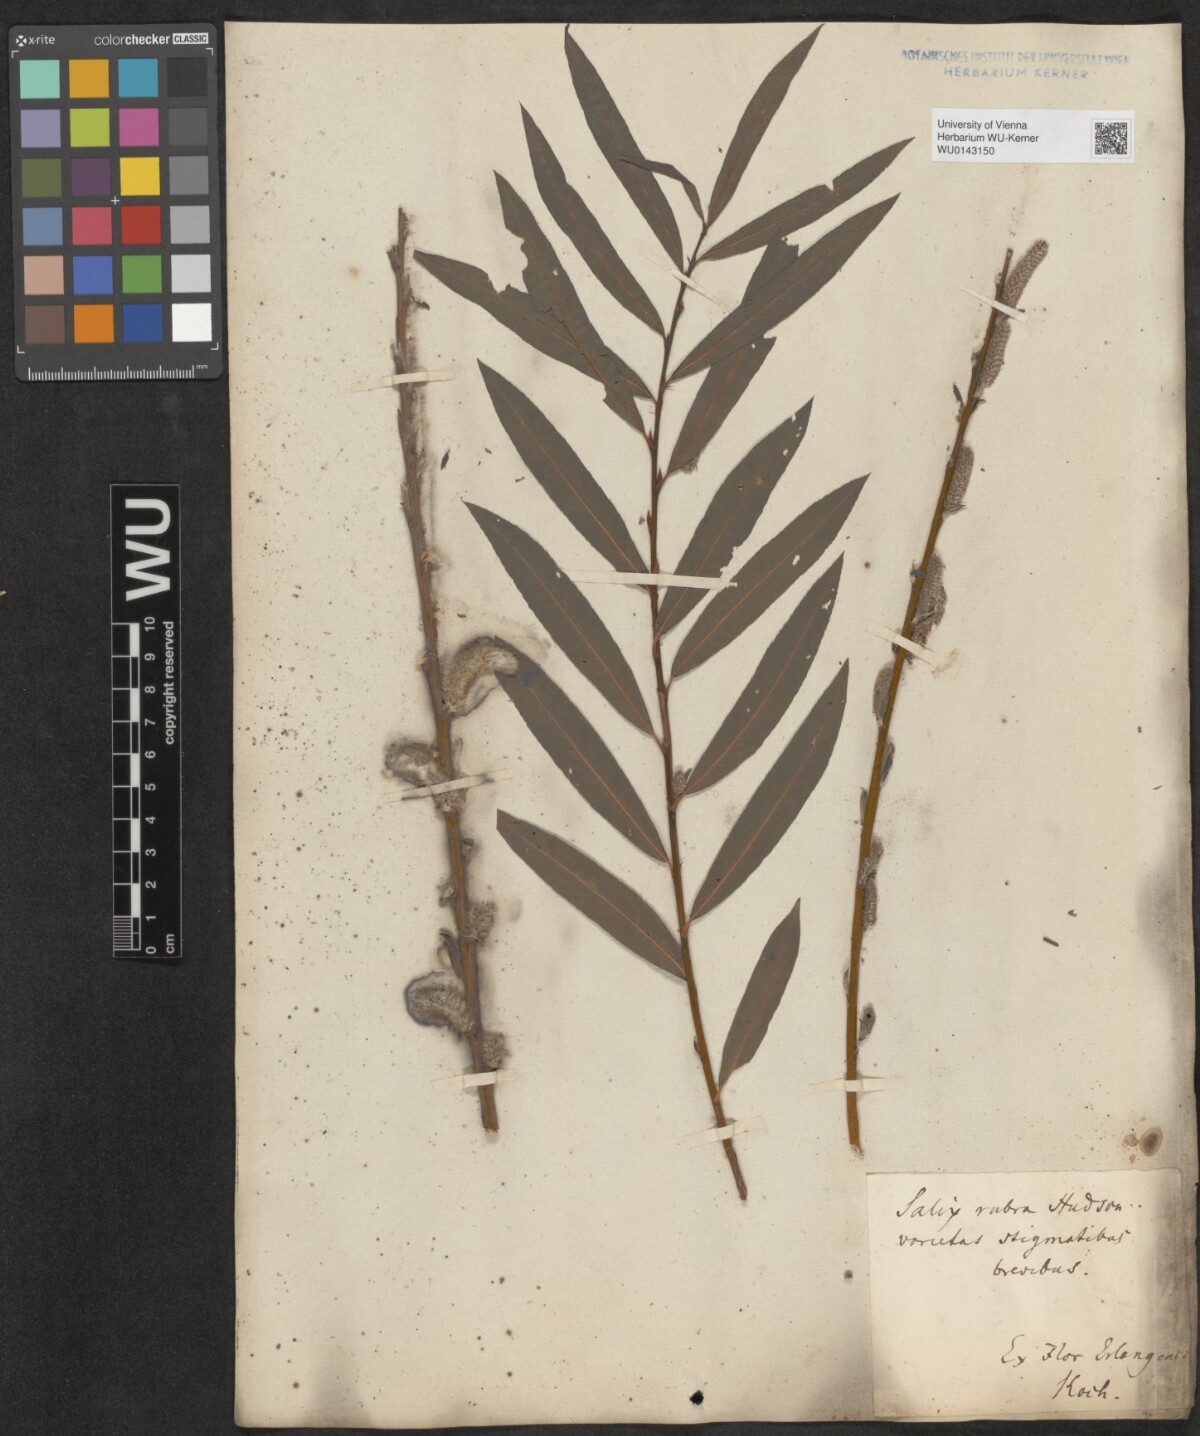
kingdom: Plantae
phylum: Tracheophyta
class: Magnoliopsida
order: Malpighiales
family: Salicaceae
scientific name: Salicaceae
